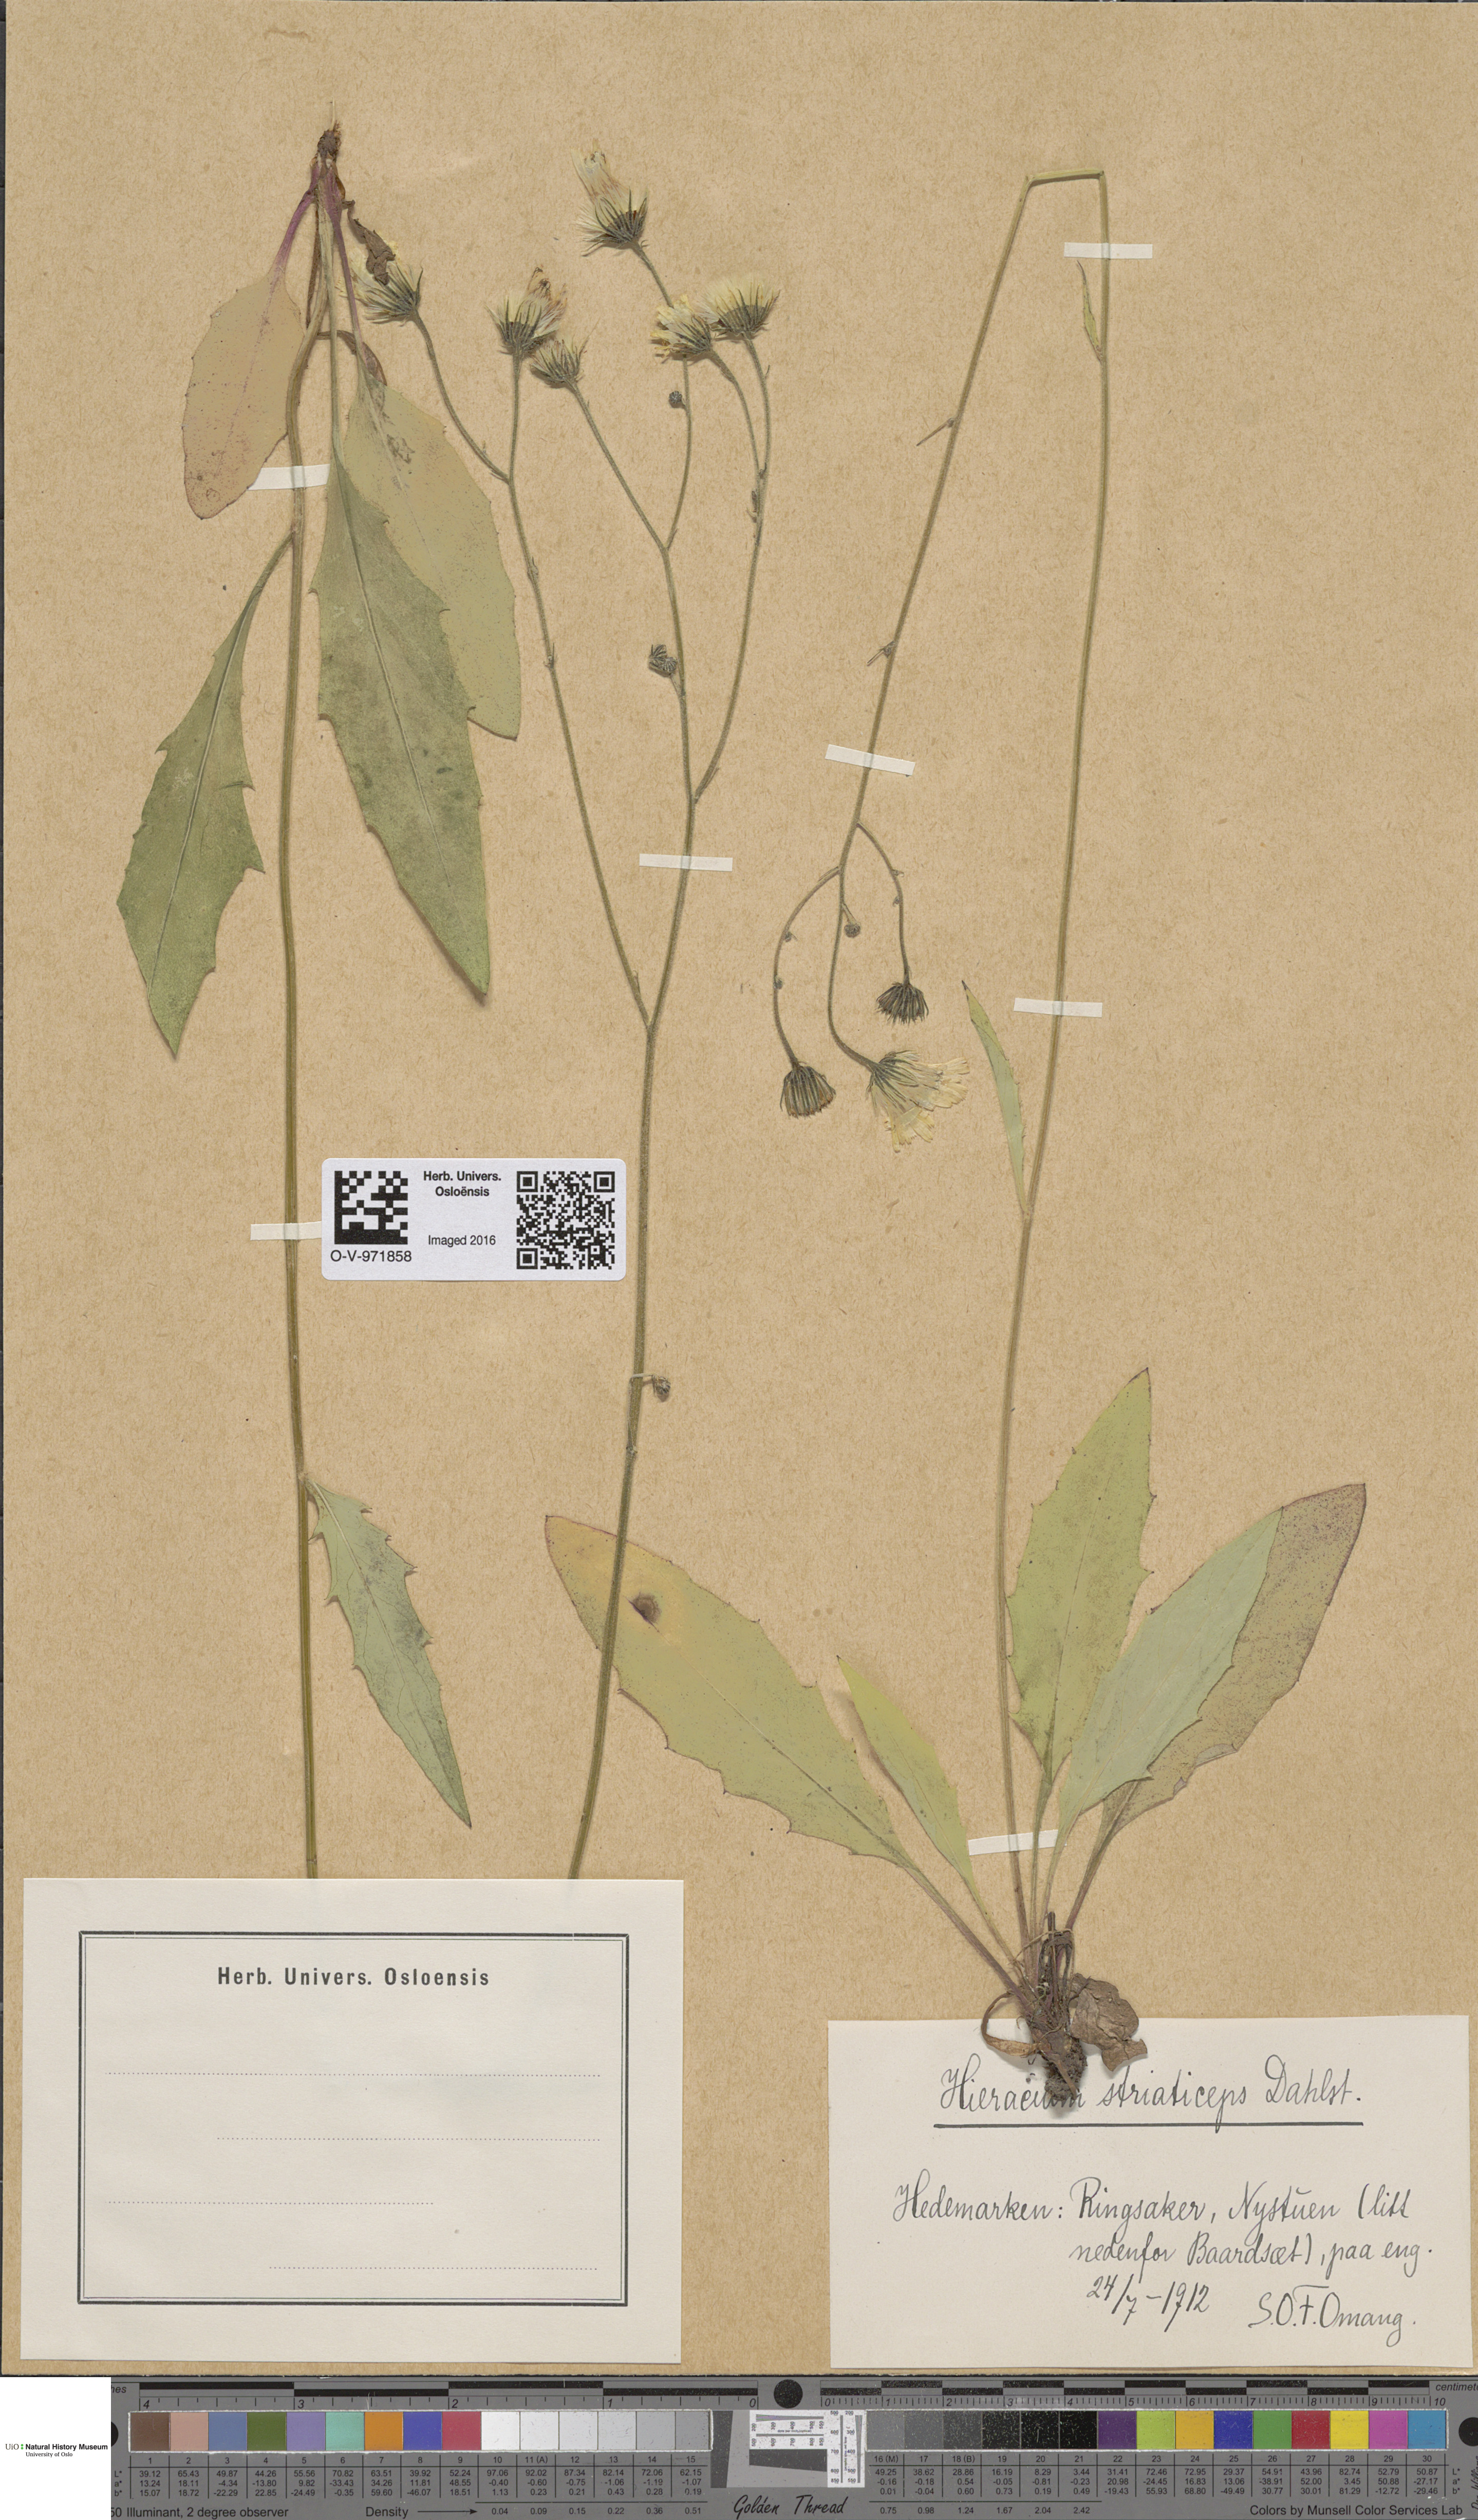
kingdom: Plantae
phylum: Tracheophyta
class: Magnoliopsida
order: Asterales
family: Asteraceae
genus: Hieracium
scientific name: Hieracium
